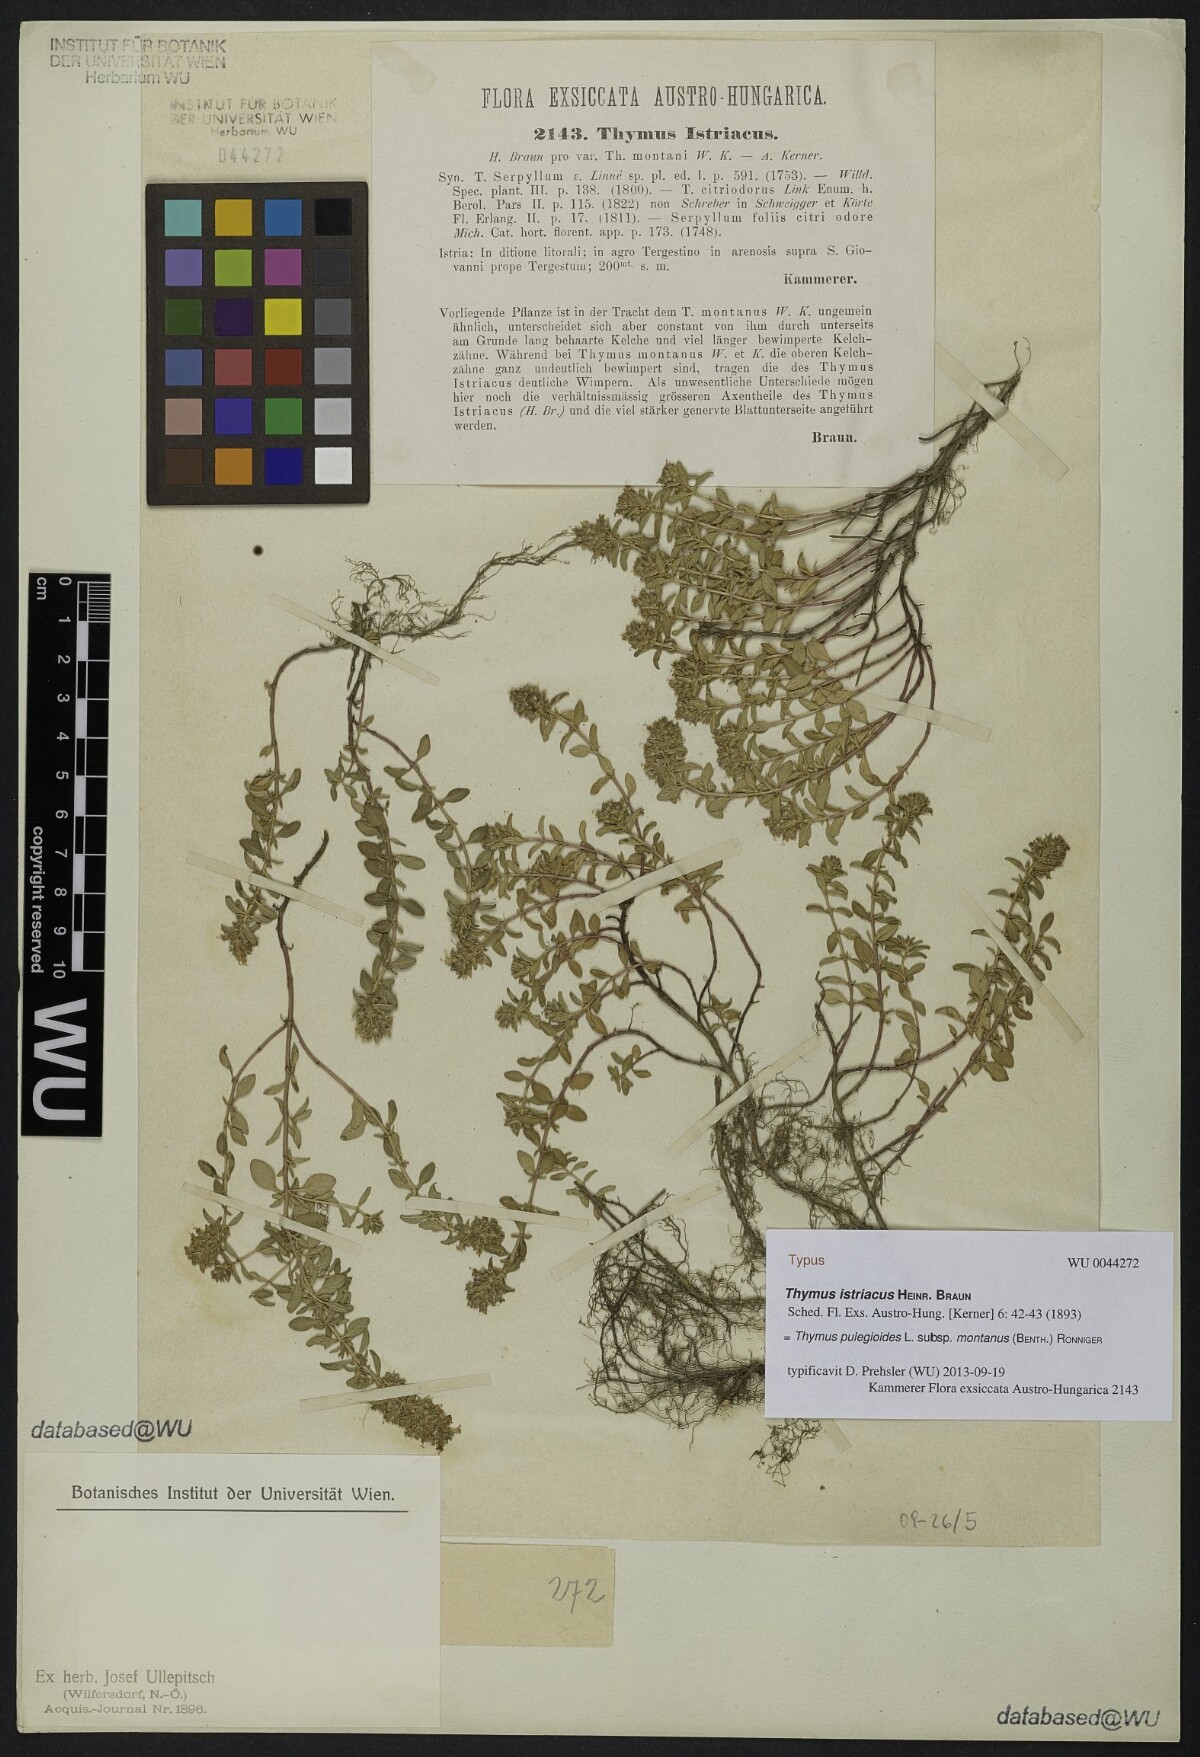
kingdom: Plantae
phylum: Tracheophyta
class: Magnoliopsida
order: Lamiales
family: Lamiaceae
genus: Thymus
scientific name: Thymus pulegioides
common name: Large thyme
